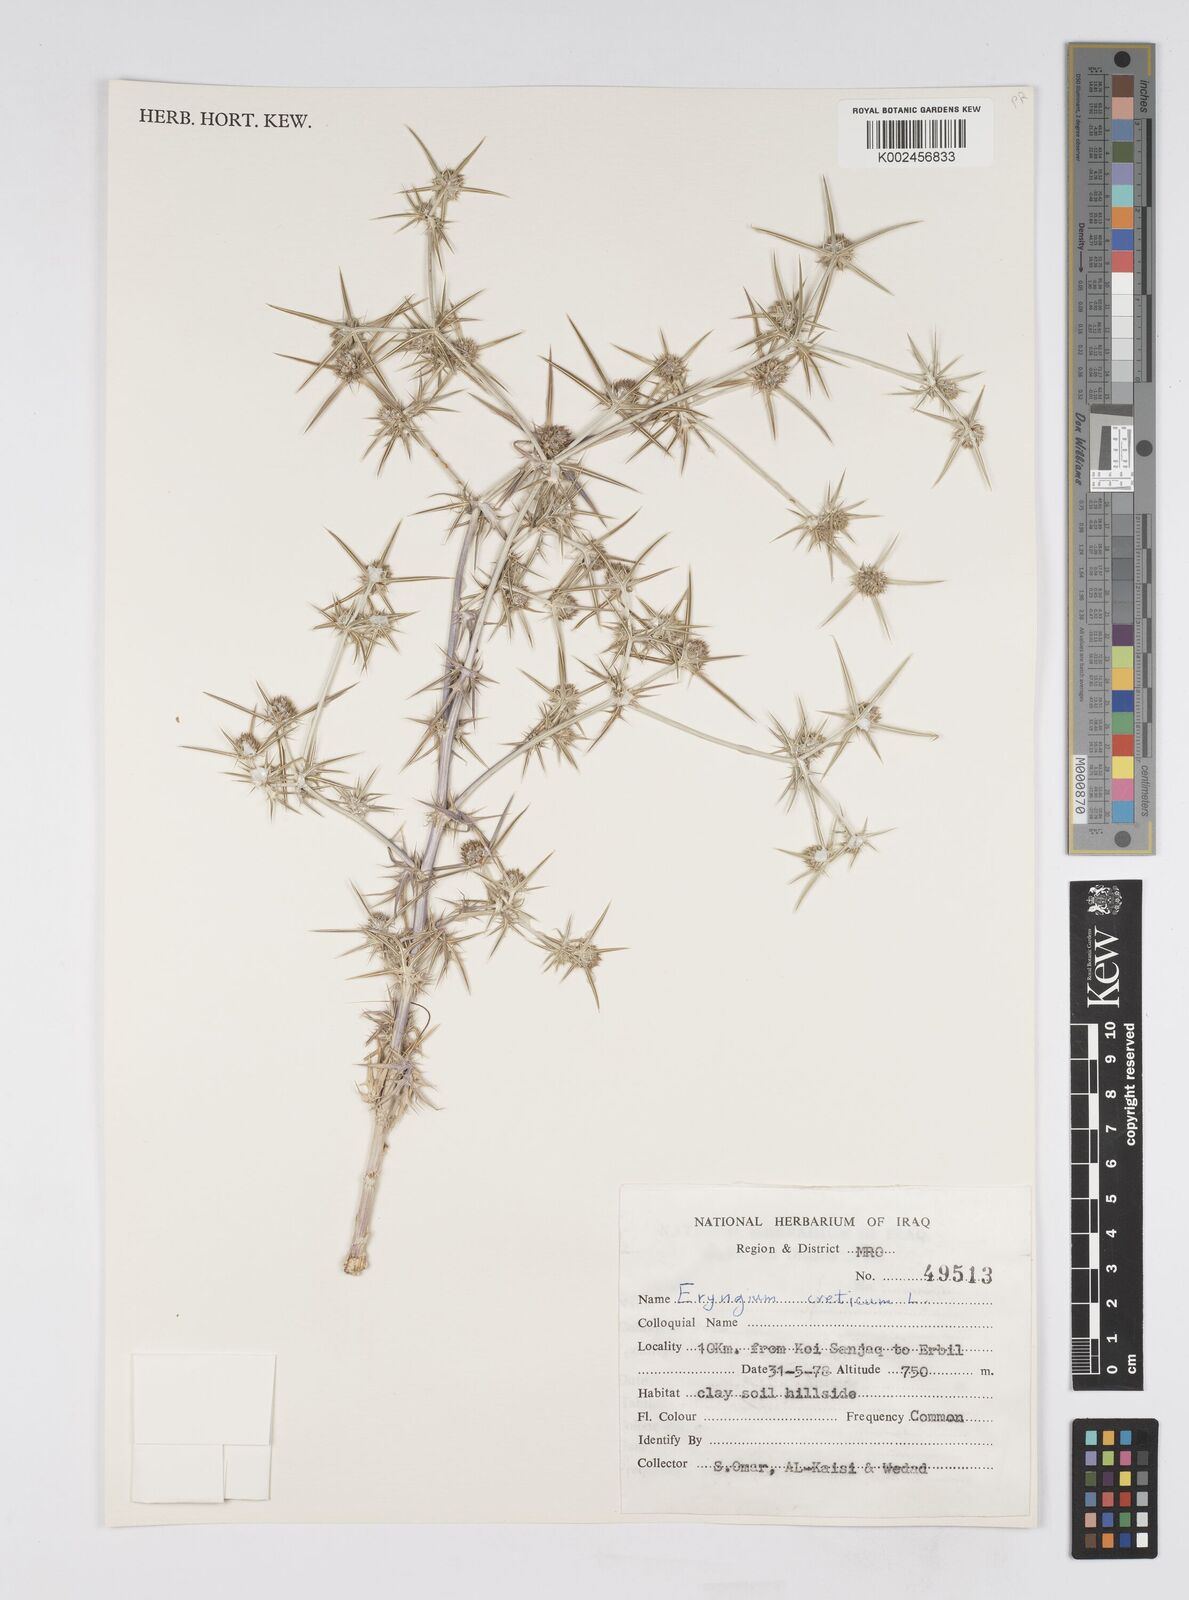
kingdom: Plantae
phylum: Tracheophyta
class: Magnoliopsida
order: Apiales
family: Apiaceae
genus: Eryngium
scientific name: Eryngium creticum
